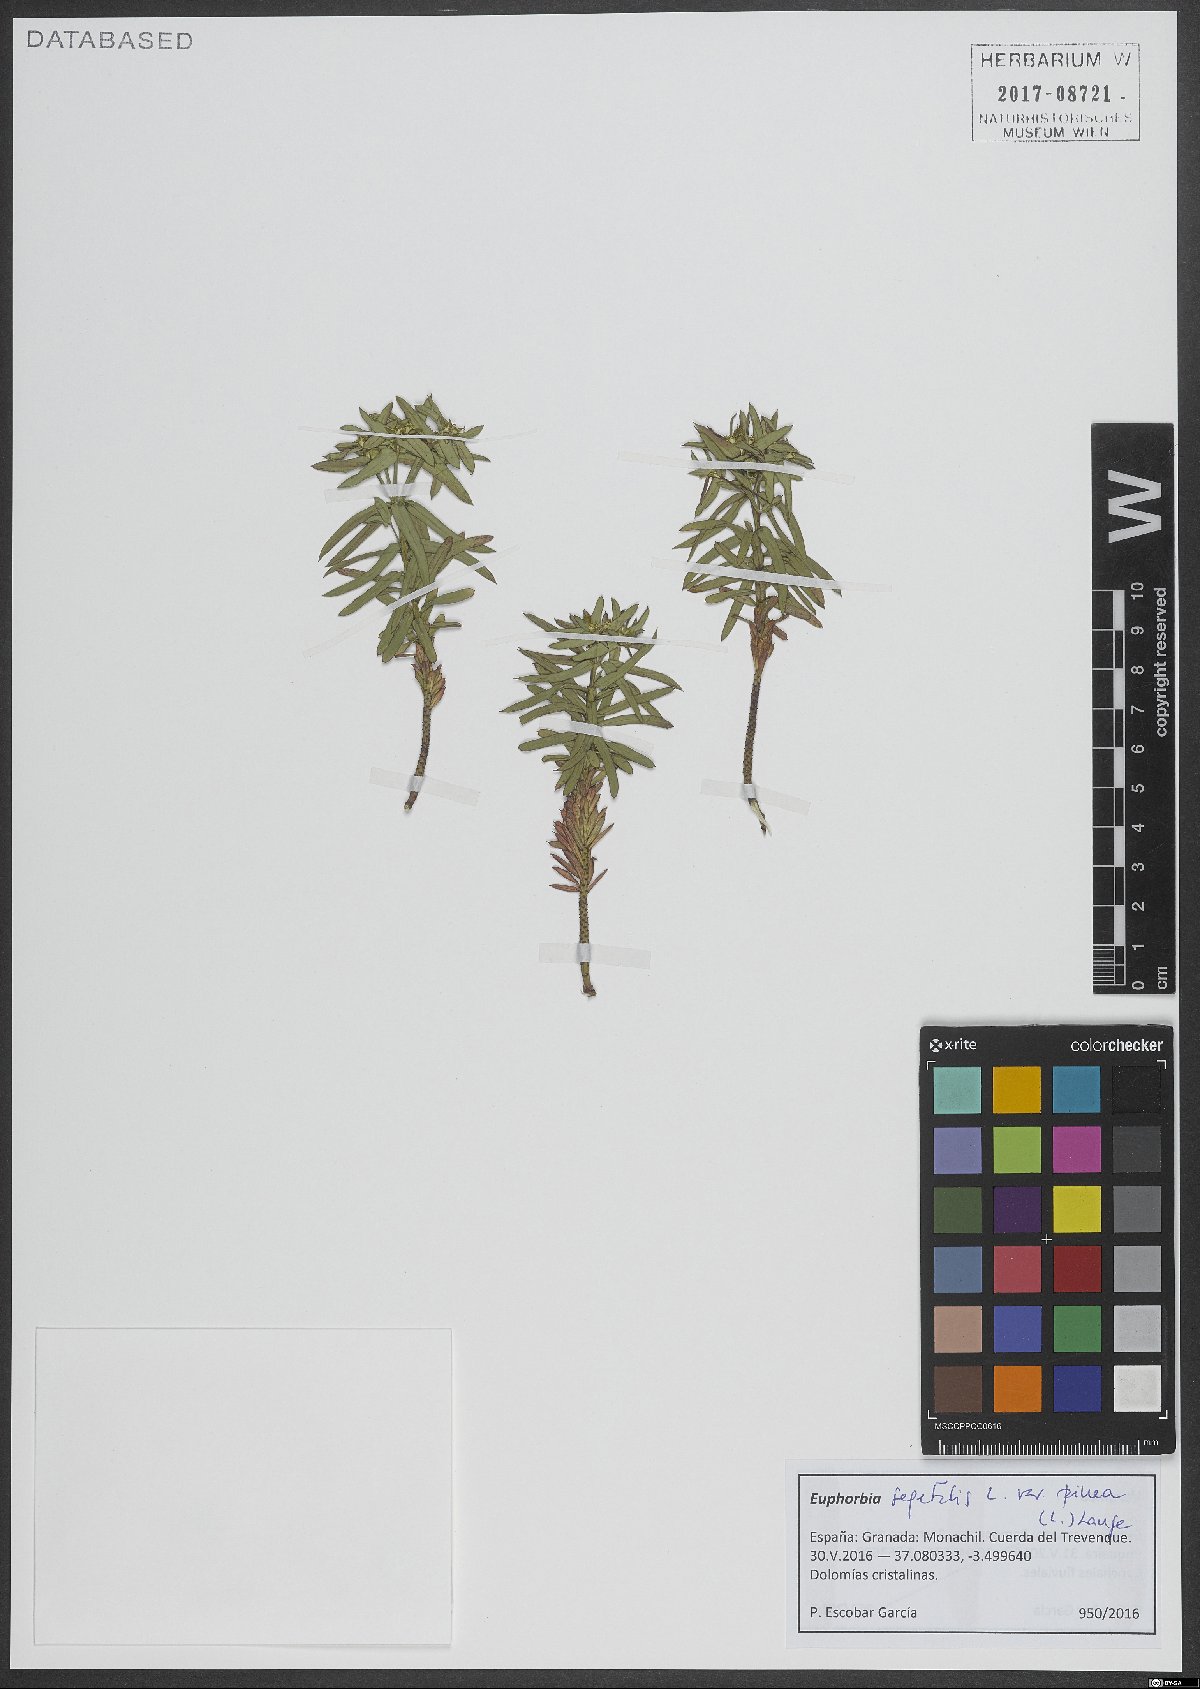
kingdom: Plantae
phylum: Tracheophyta
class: Magnoliopsida
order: Malpighiales
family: Euphorbiaceae
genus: Euphorbia
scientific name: Euphorbia segetalis
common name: Corn spurge
